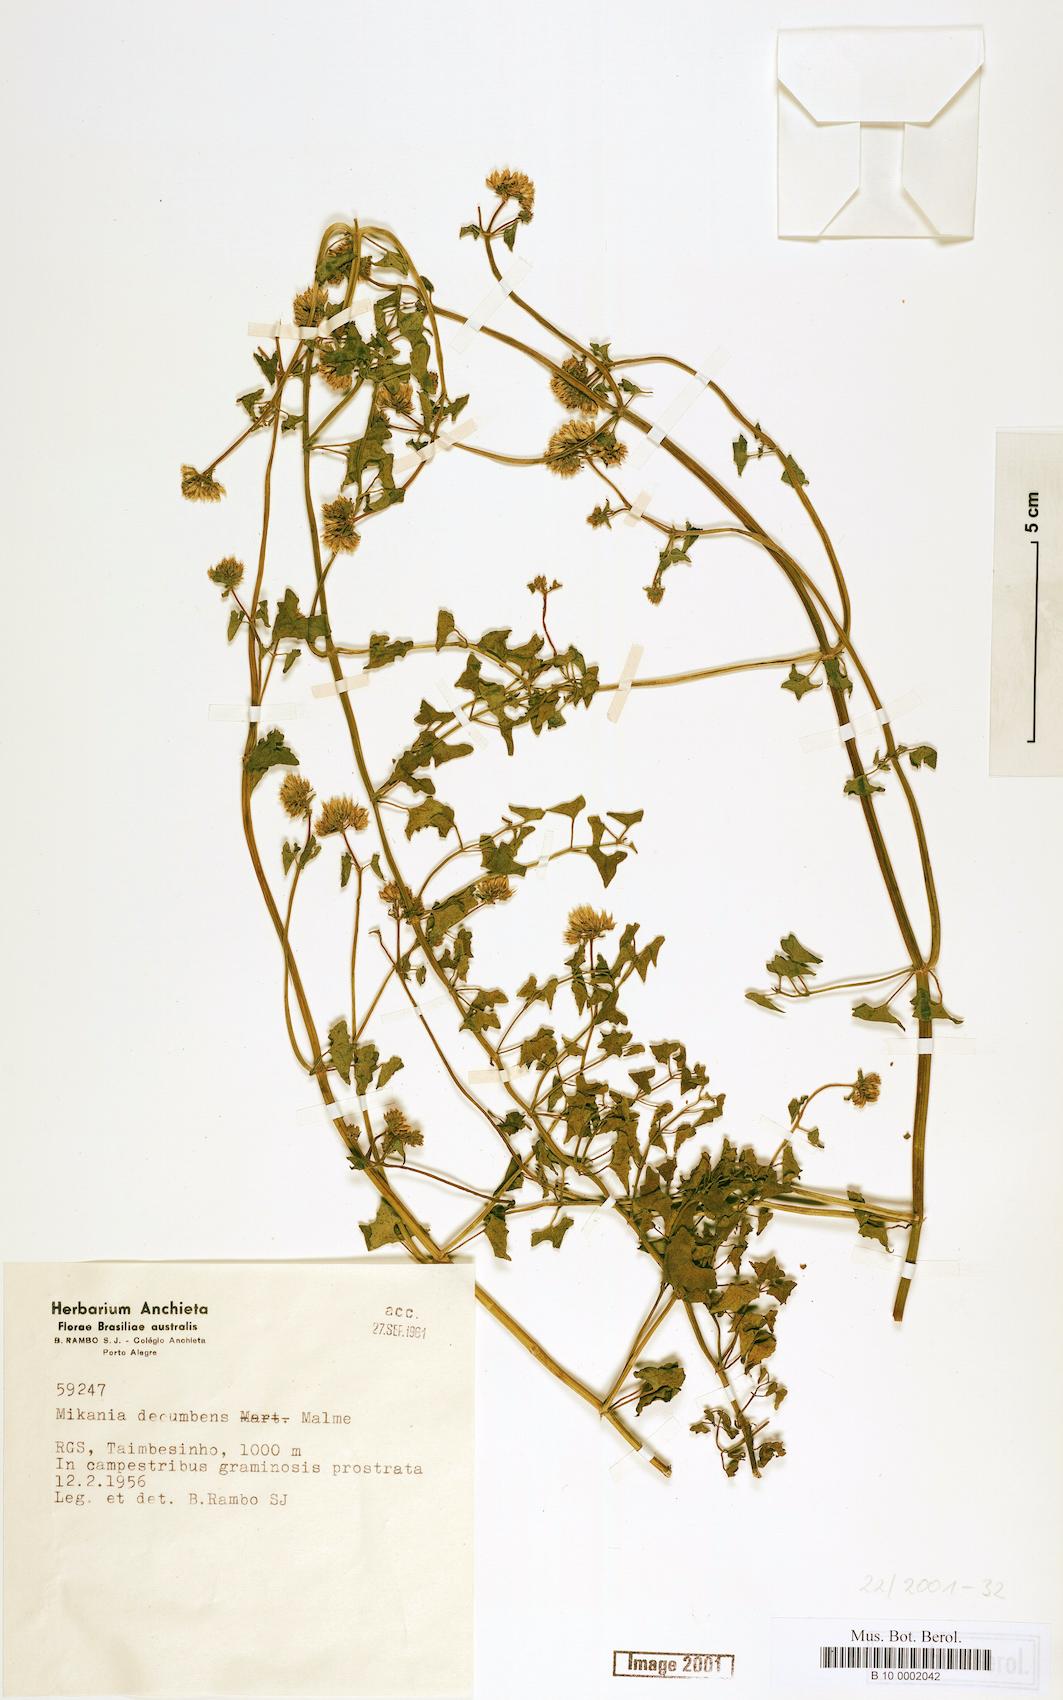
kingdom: Plantae
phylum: Tracheophyta
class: Magnoliopsida
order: Asterales
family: Asteraceae
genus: Mikania
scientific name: Mikania decumbens
